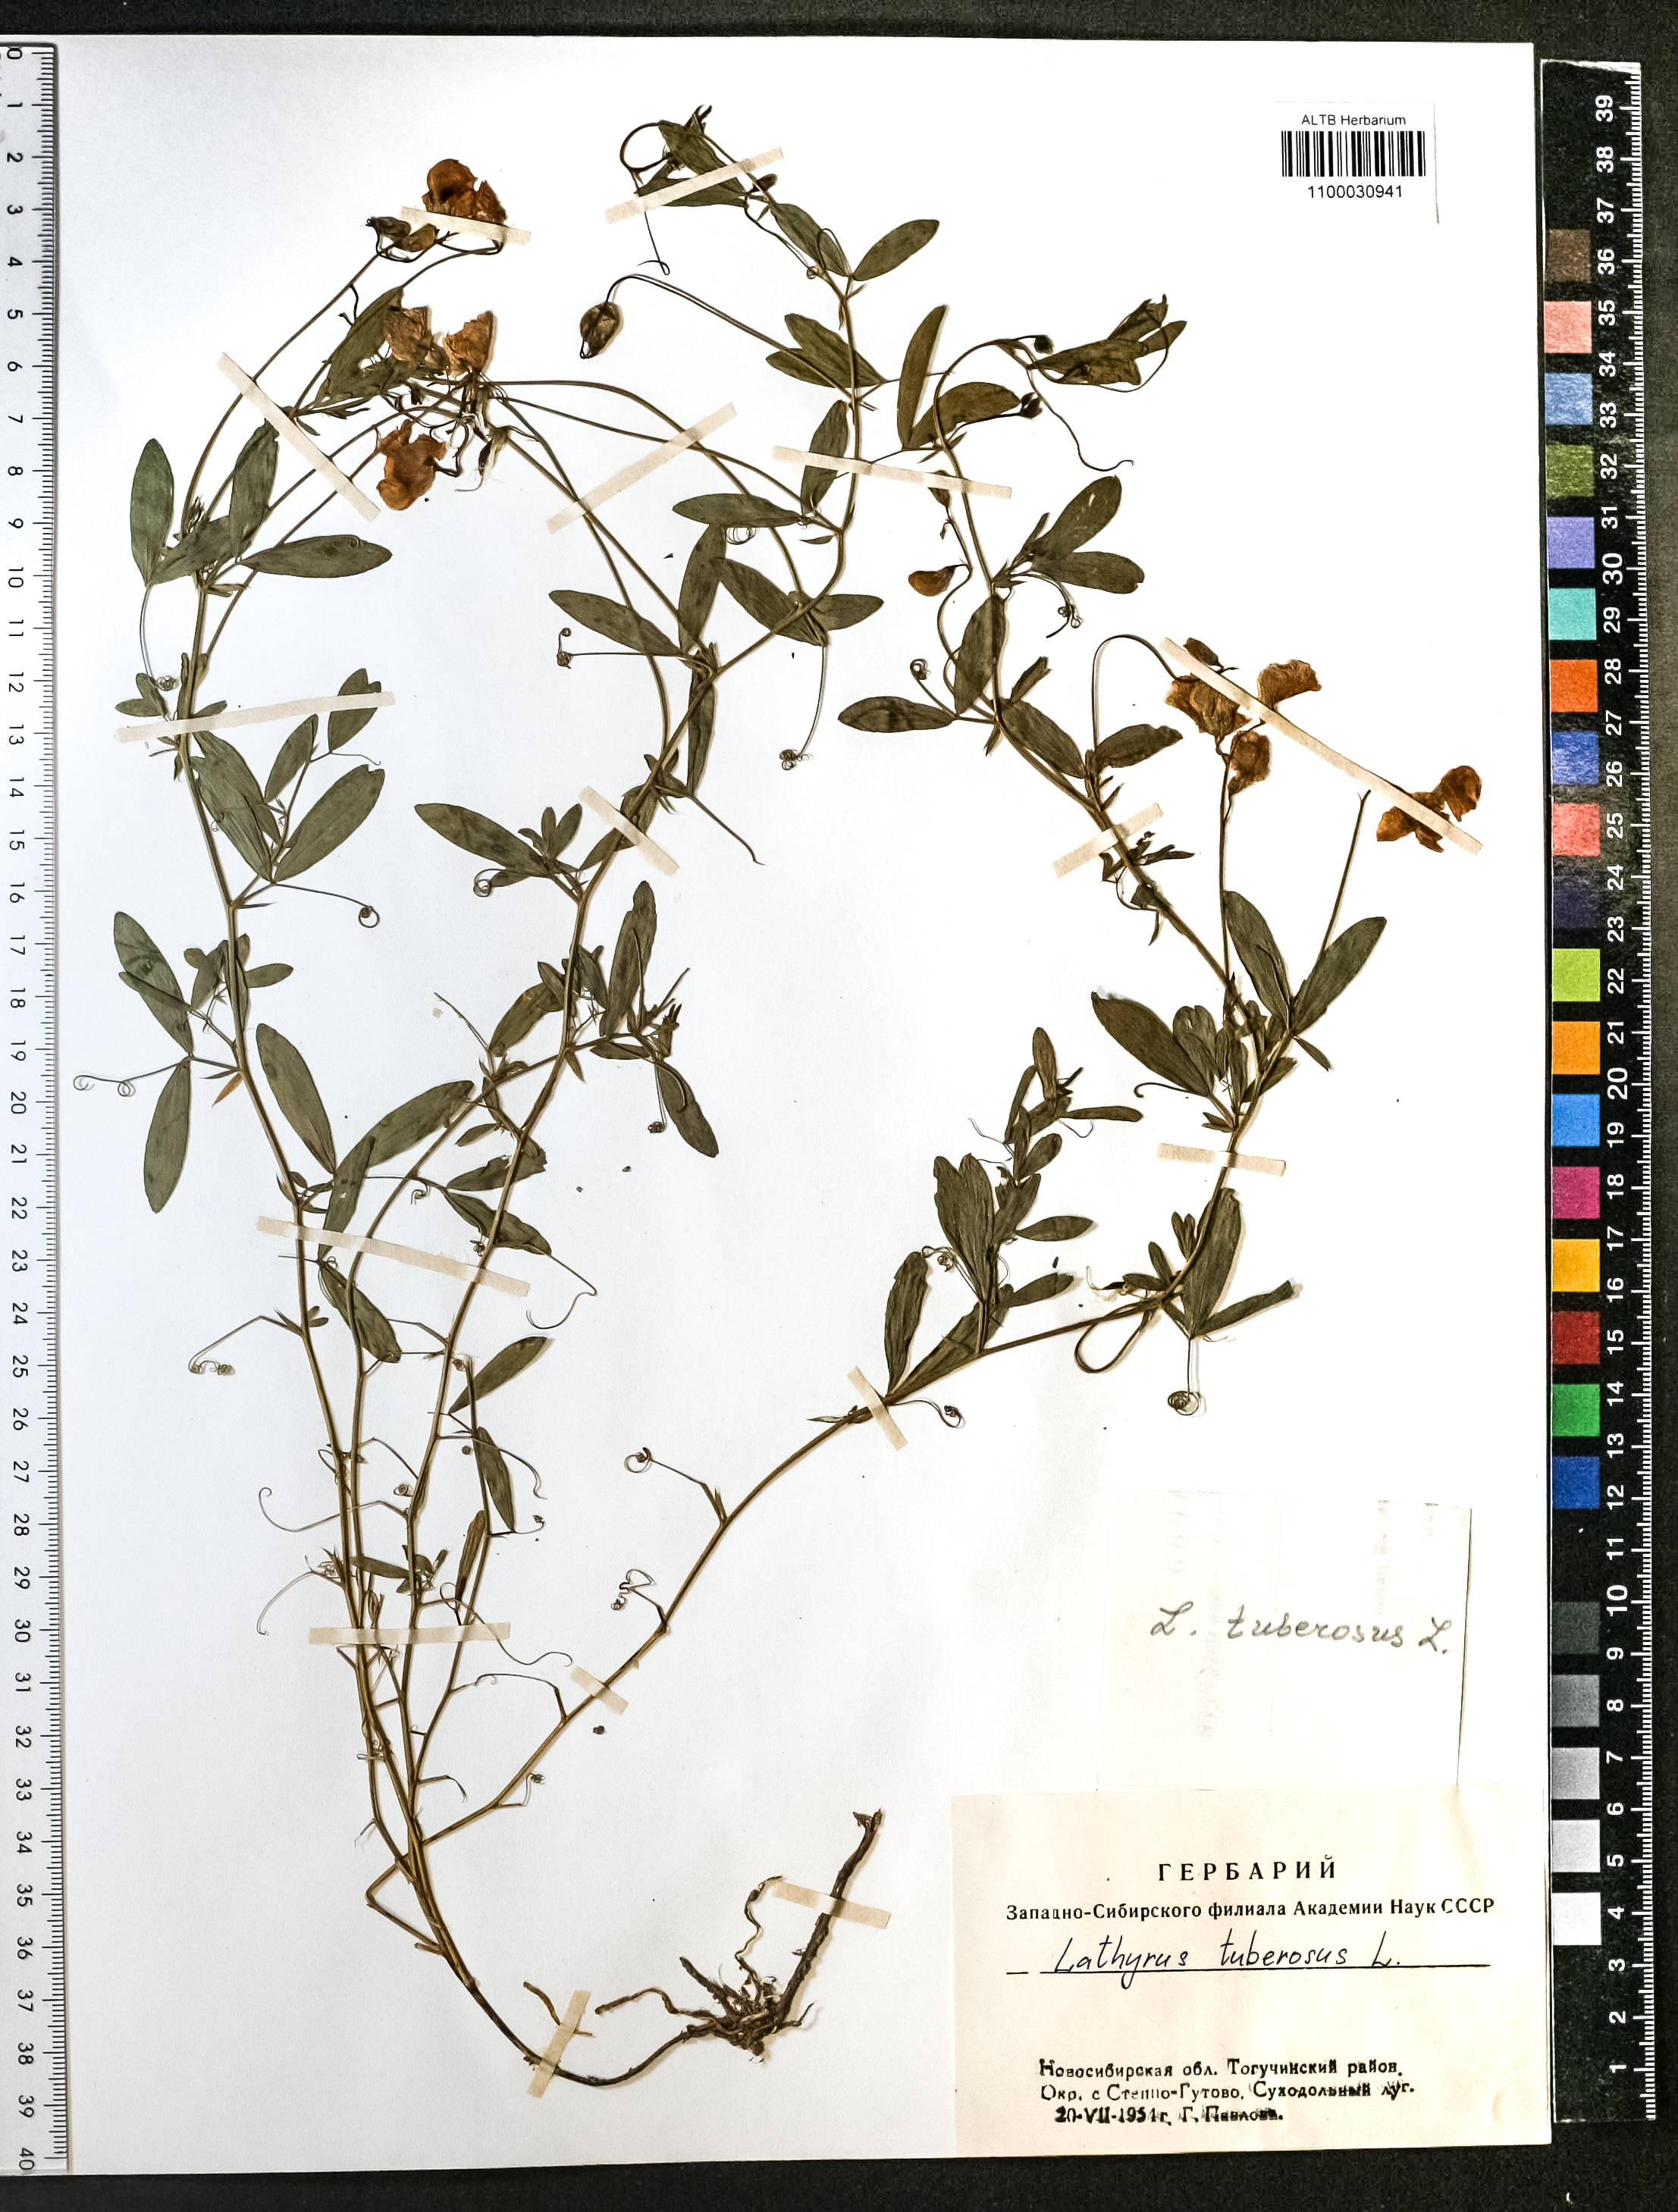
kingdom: Plantae
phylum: Tracheophyta
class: Magnoliopsida
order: Fabales
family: Fabaceae
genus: Lathyrus
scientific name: Lathyrus tuberosus
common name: Tuberous pea
